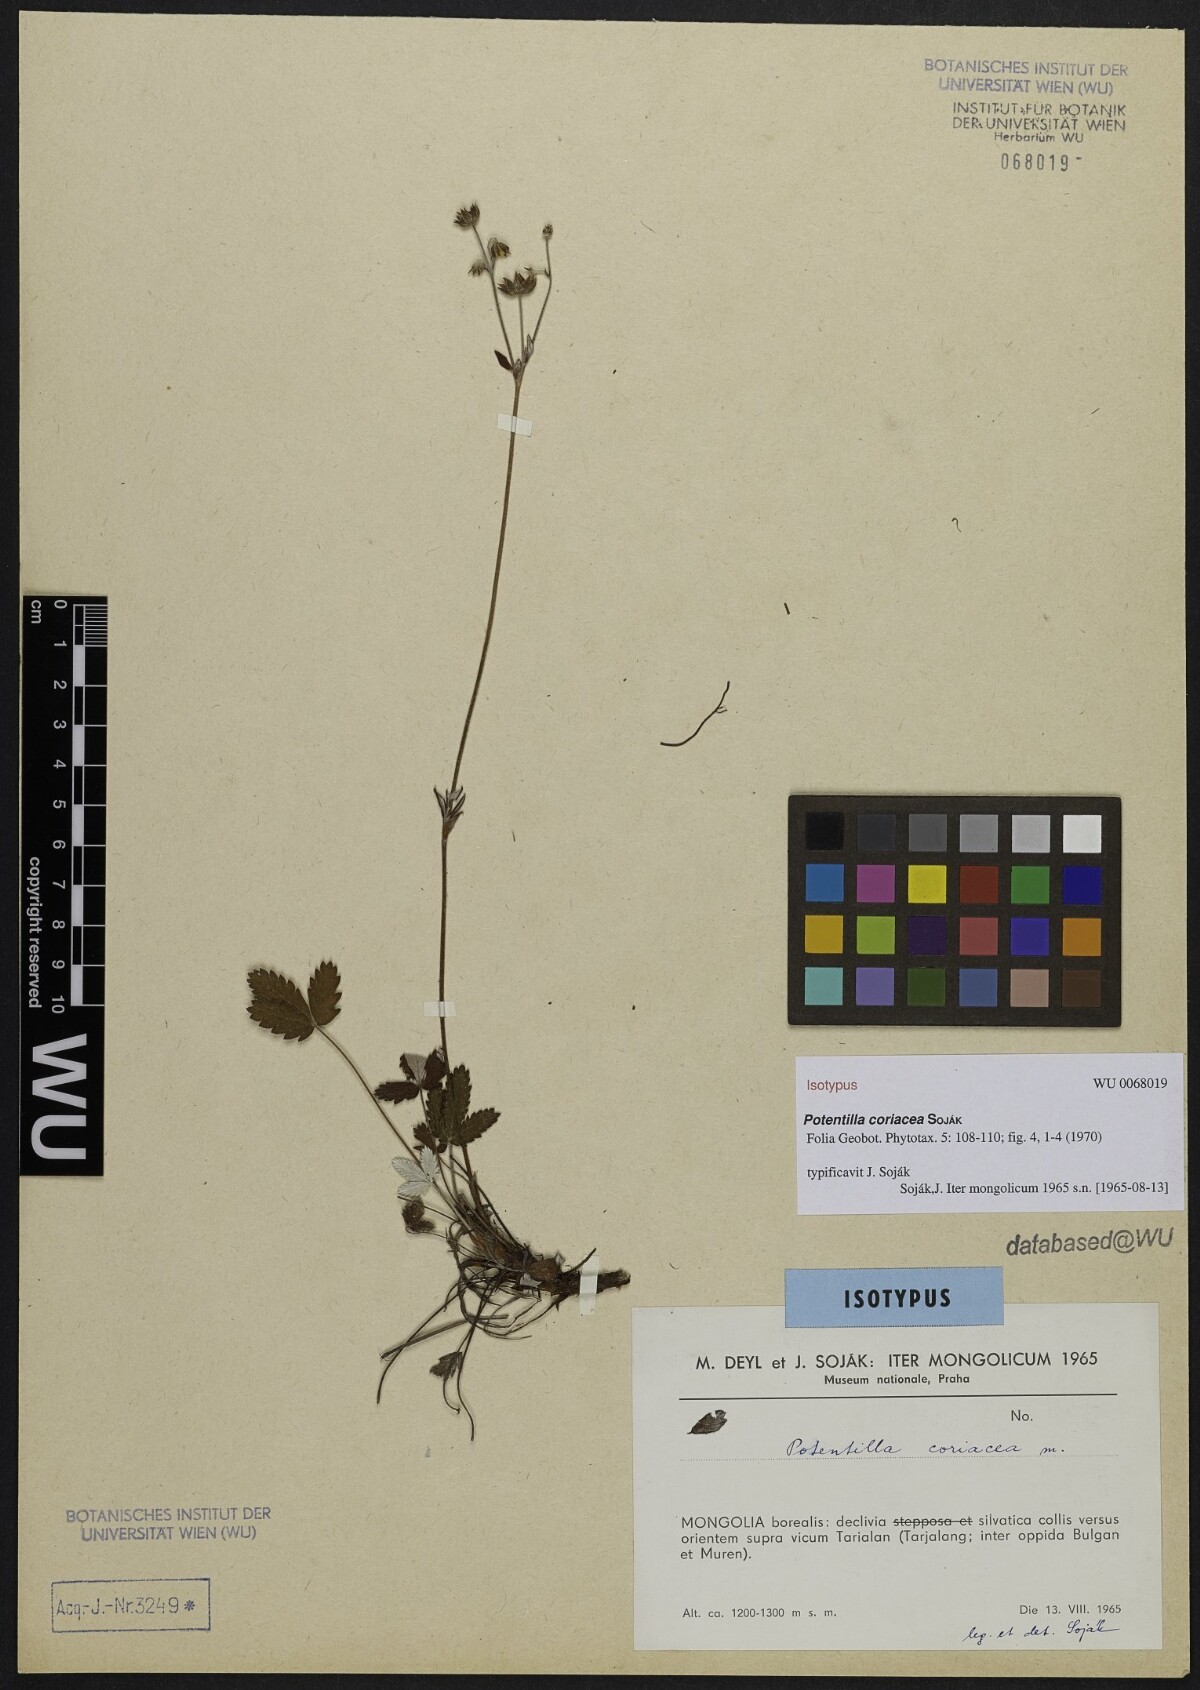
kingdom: Plantae
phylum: Tracheophyta
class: Magnoliopsida
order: Rosales
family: Rosaceae
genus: Potentilla
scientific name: Potentilla coriacea
